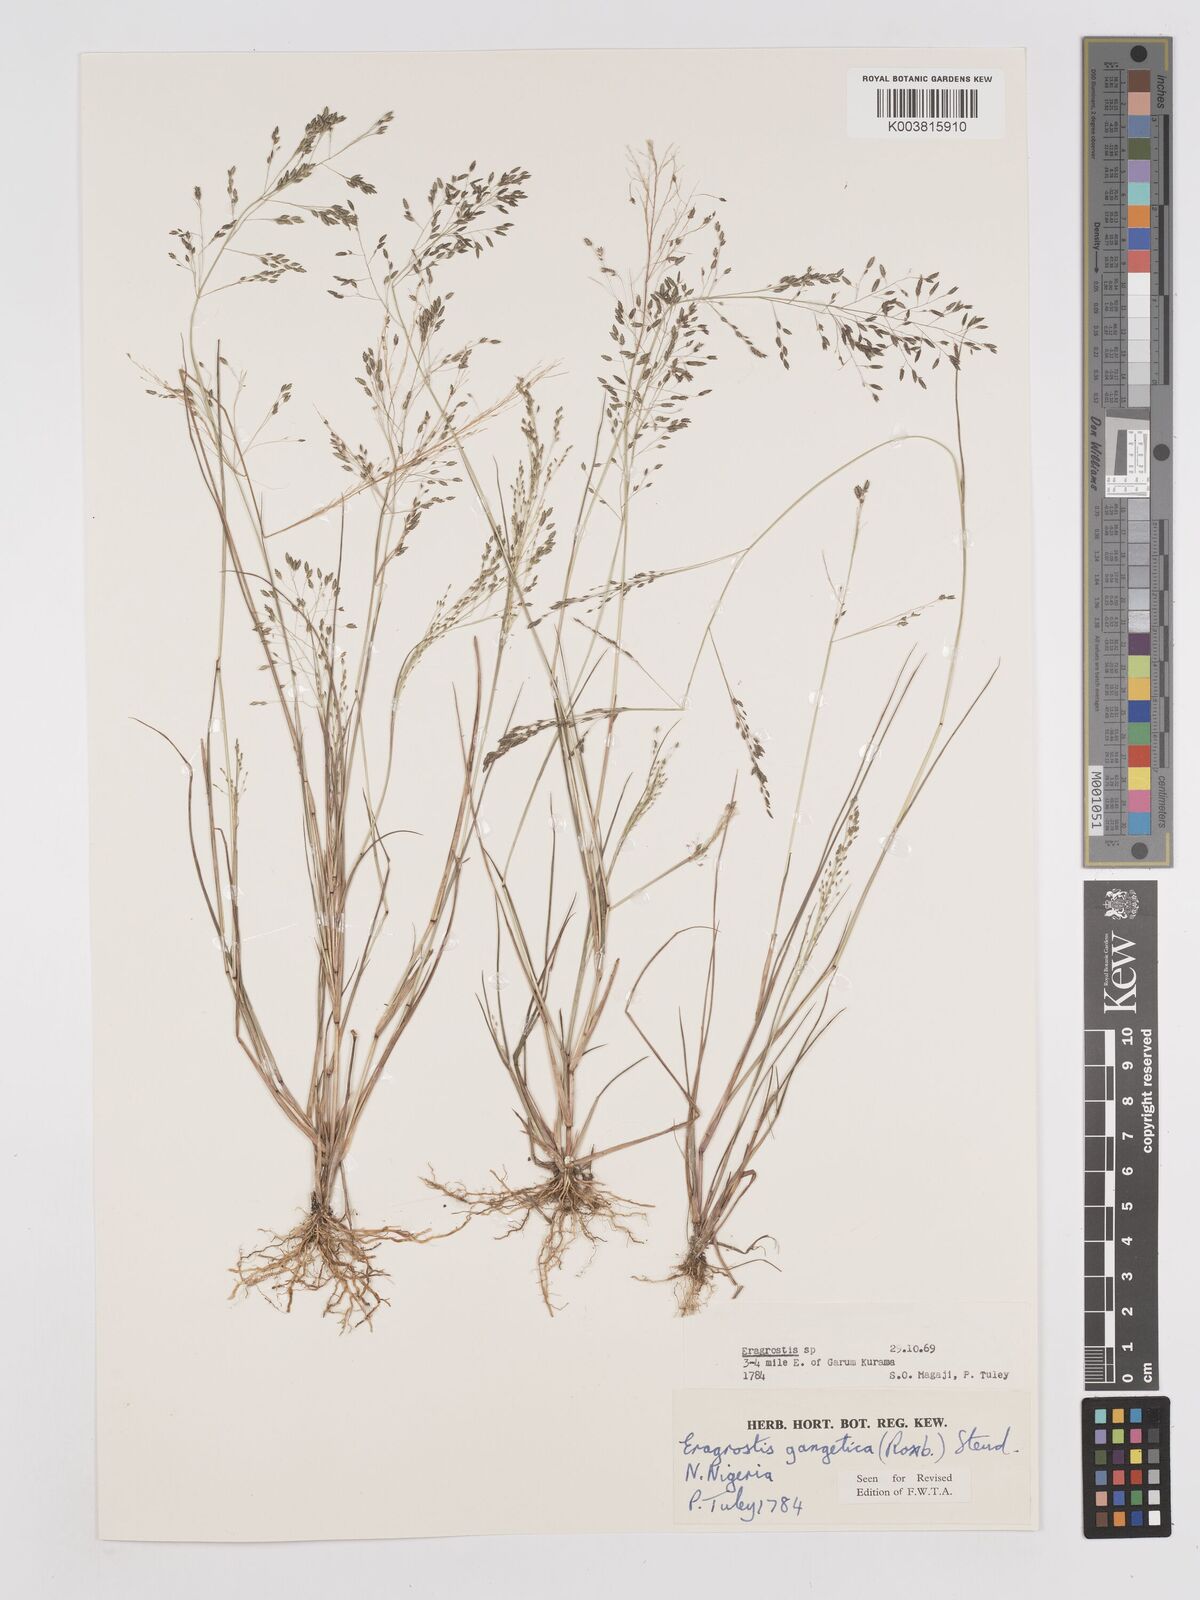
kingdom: Plantae
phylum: Tracheophyta
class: Liliopsida
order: Poales
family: Poaceae
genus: Eragrostis
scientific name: Eragrostis gangetica
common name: Slimflower lovegrass
